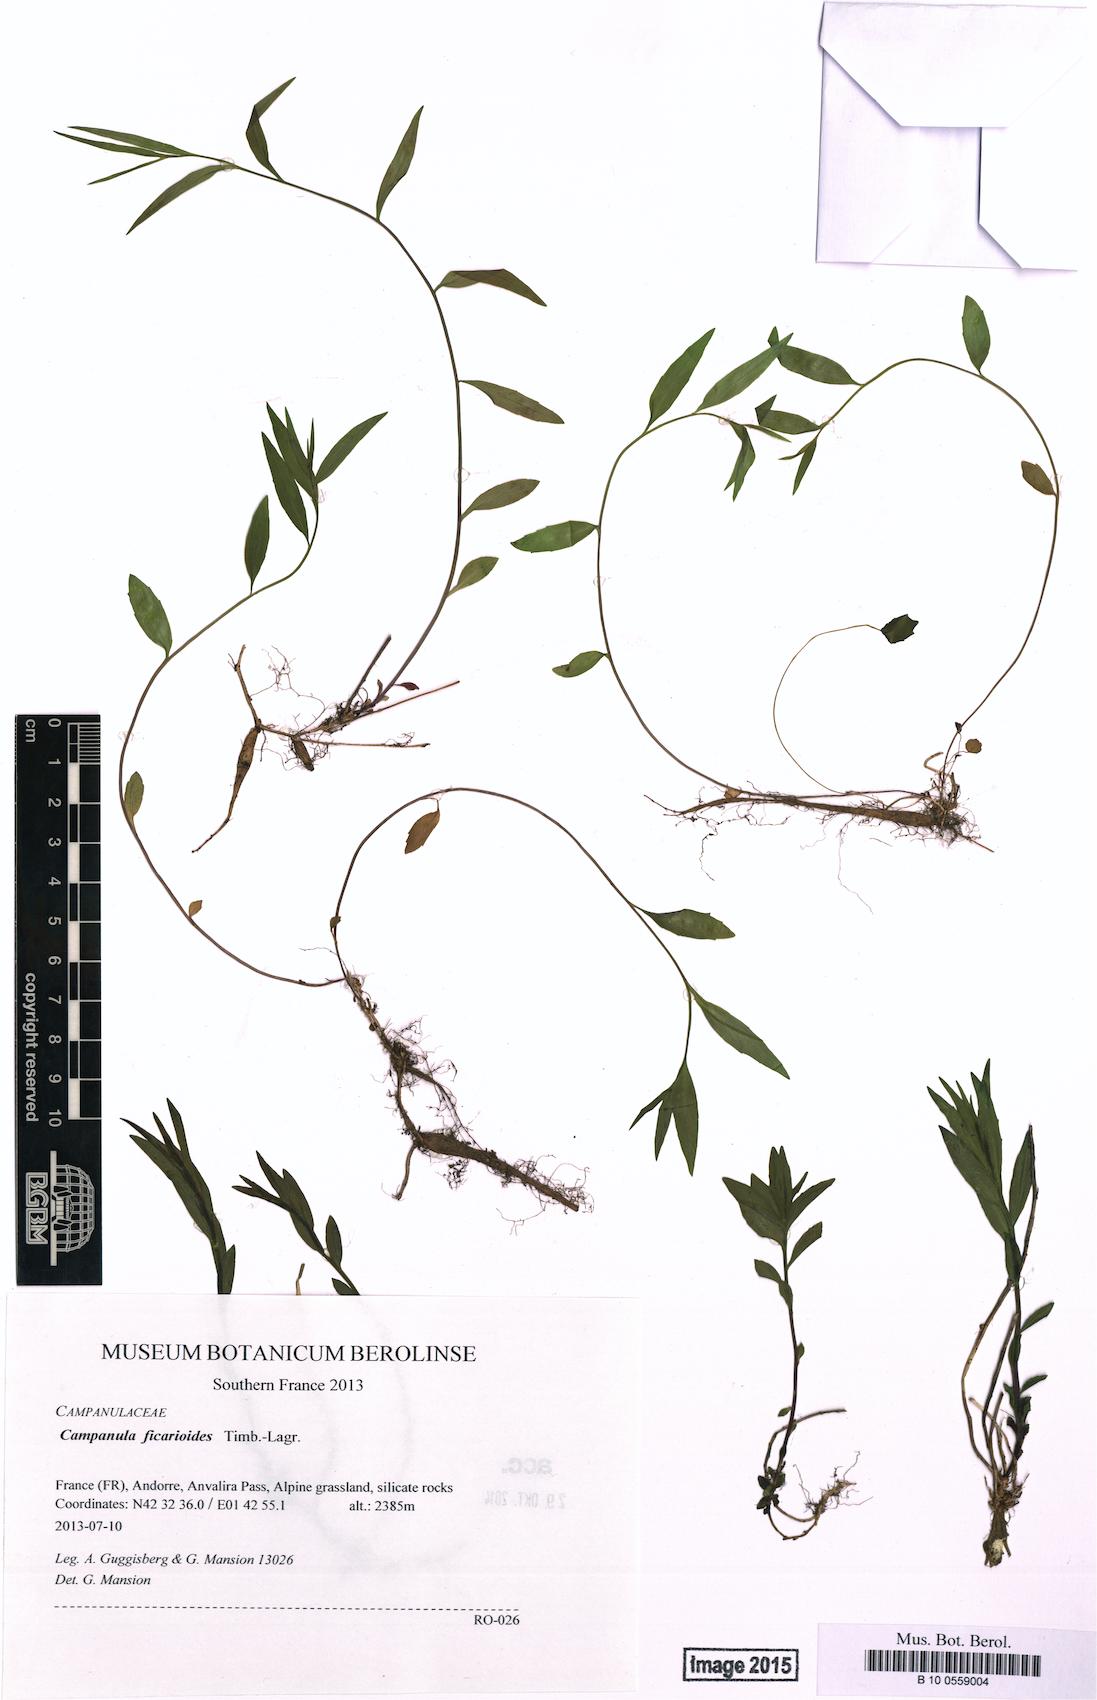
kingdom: Plantae
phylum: Tracheophyta
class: Magnoliopsida
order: Asterales
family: Campanulaceae
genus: Campanula
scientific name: Campanula ficarioides
